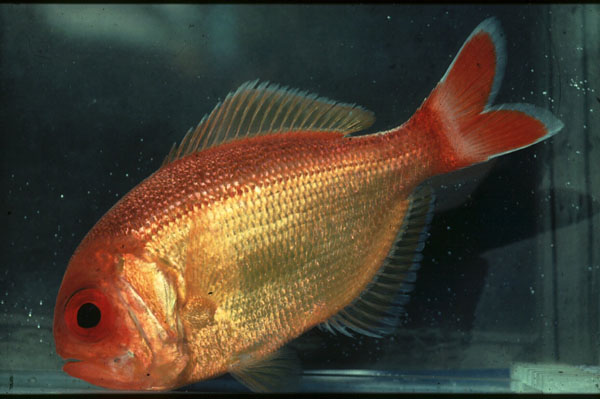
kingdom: Animalia
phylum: Chordata
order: Beryciformes
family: Berycidae
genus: Centroberyx
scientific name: Centroberyx spinosus
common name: Short alfonsino
